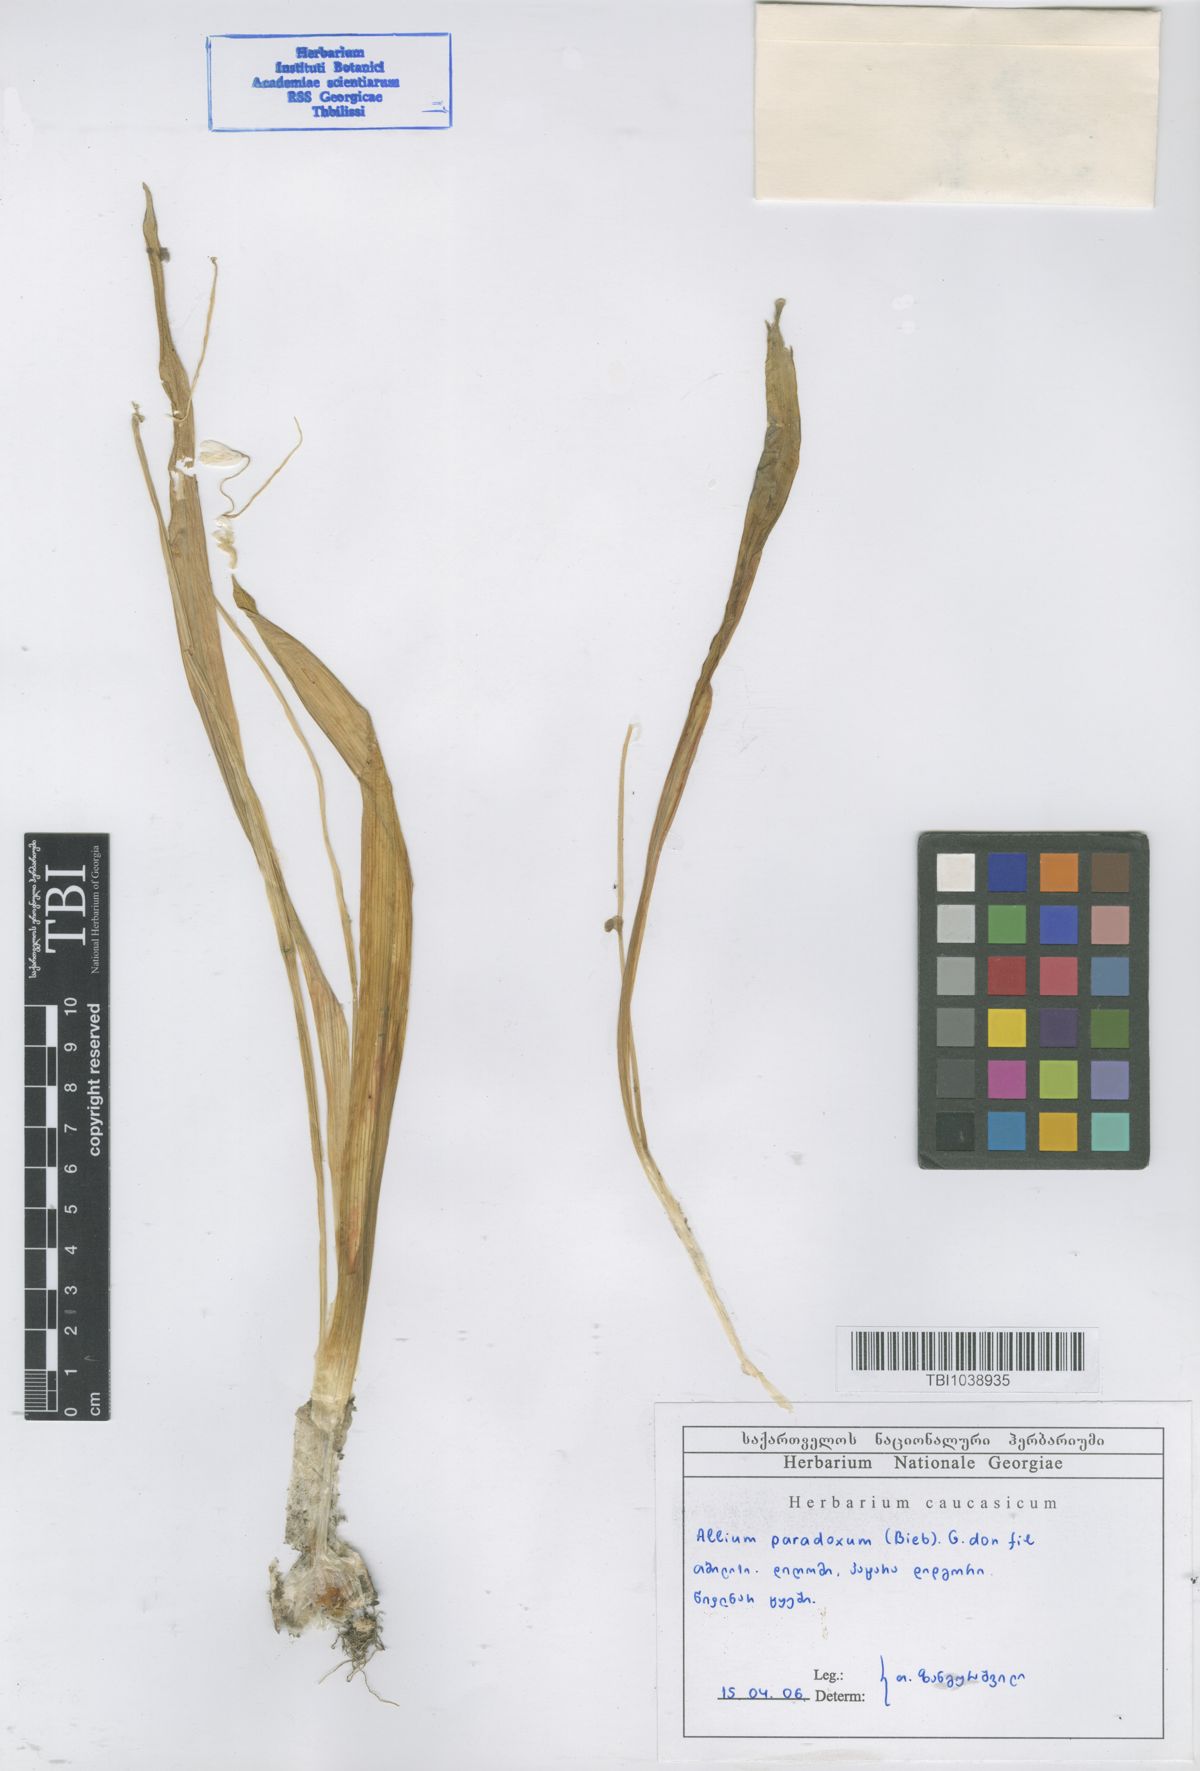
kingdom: Plantae
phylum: Tracheophyta
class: Liliopsida
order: Asparagales
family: Amaryllidaceae
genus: Allium
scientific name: Allium paradoxum
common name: Few-flowered garlic
